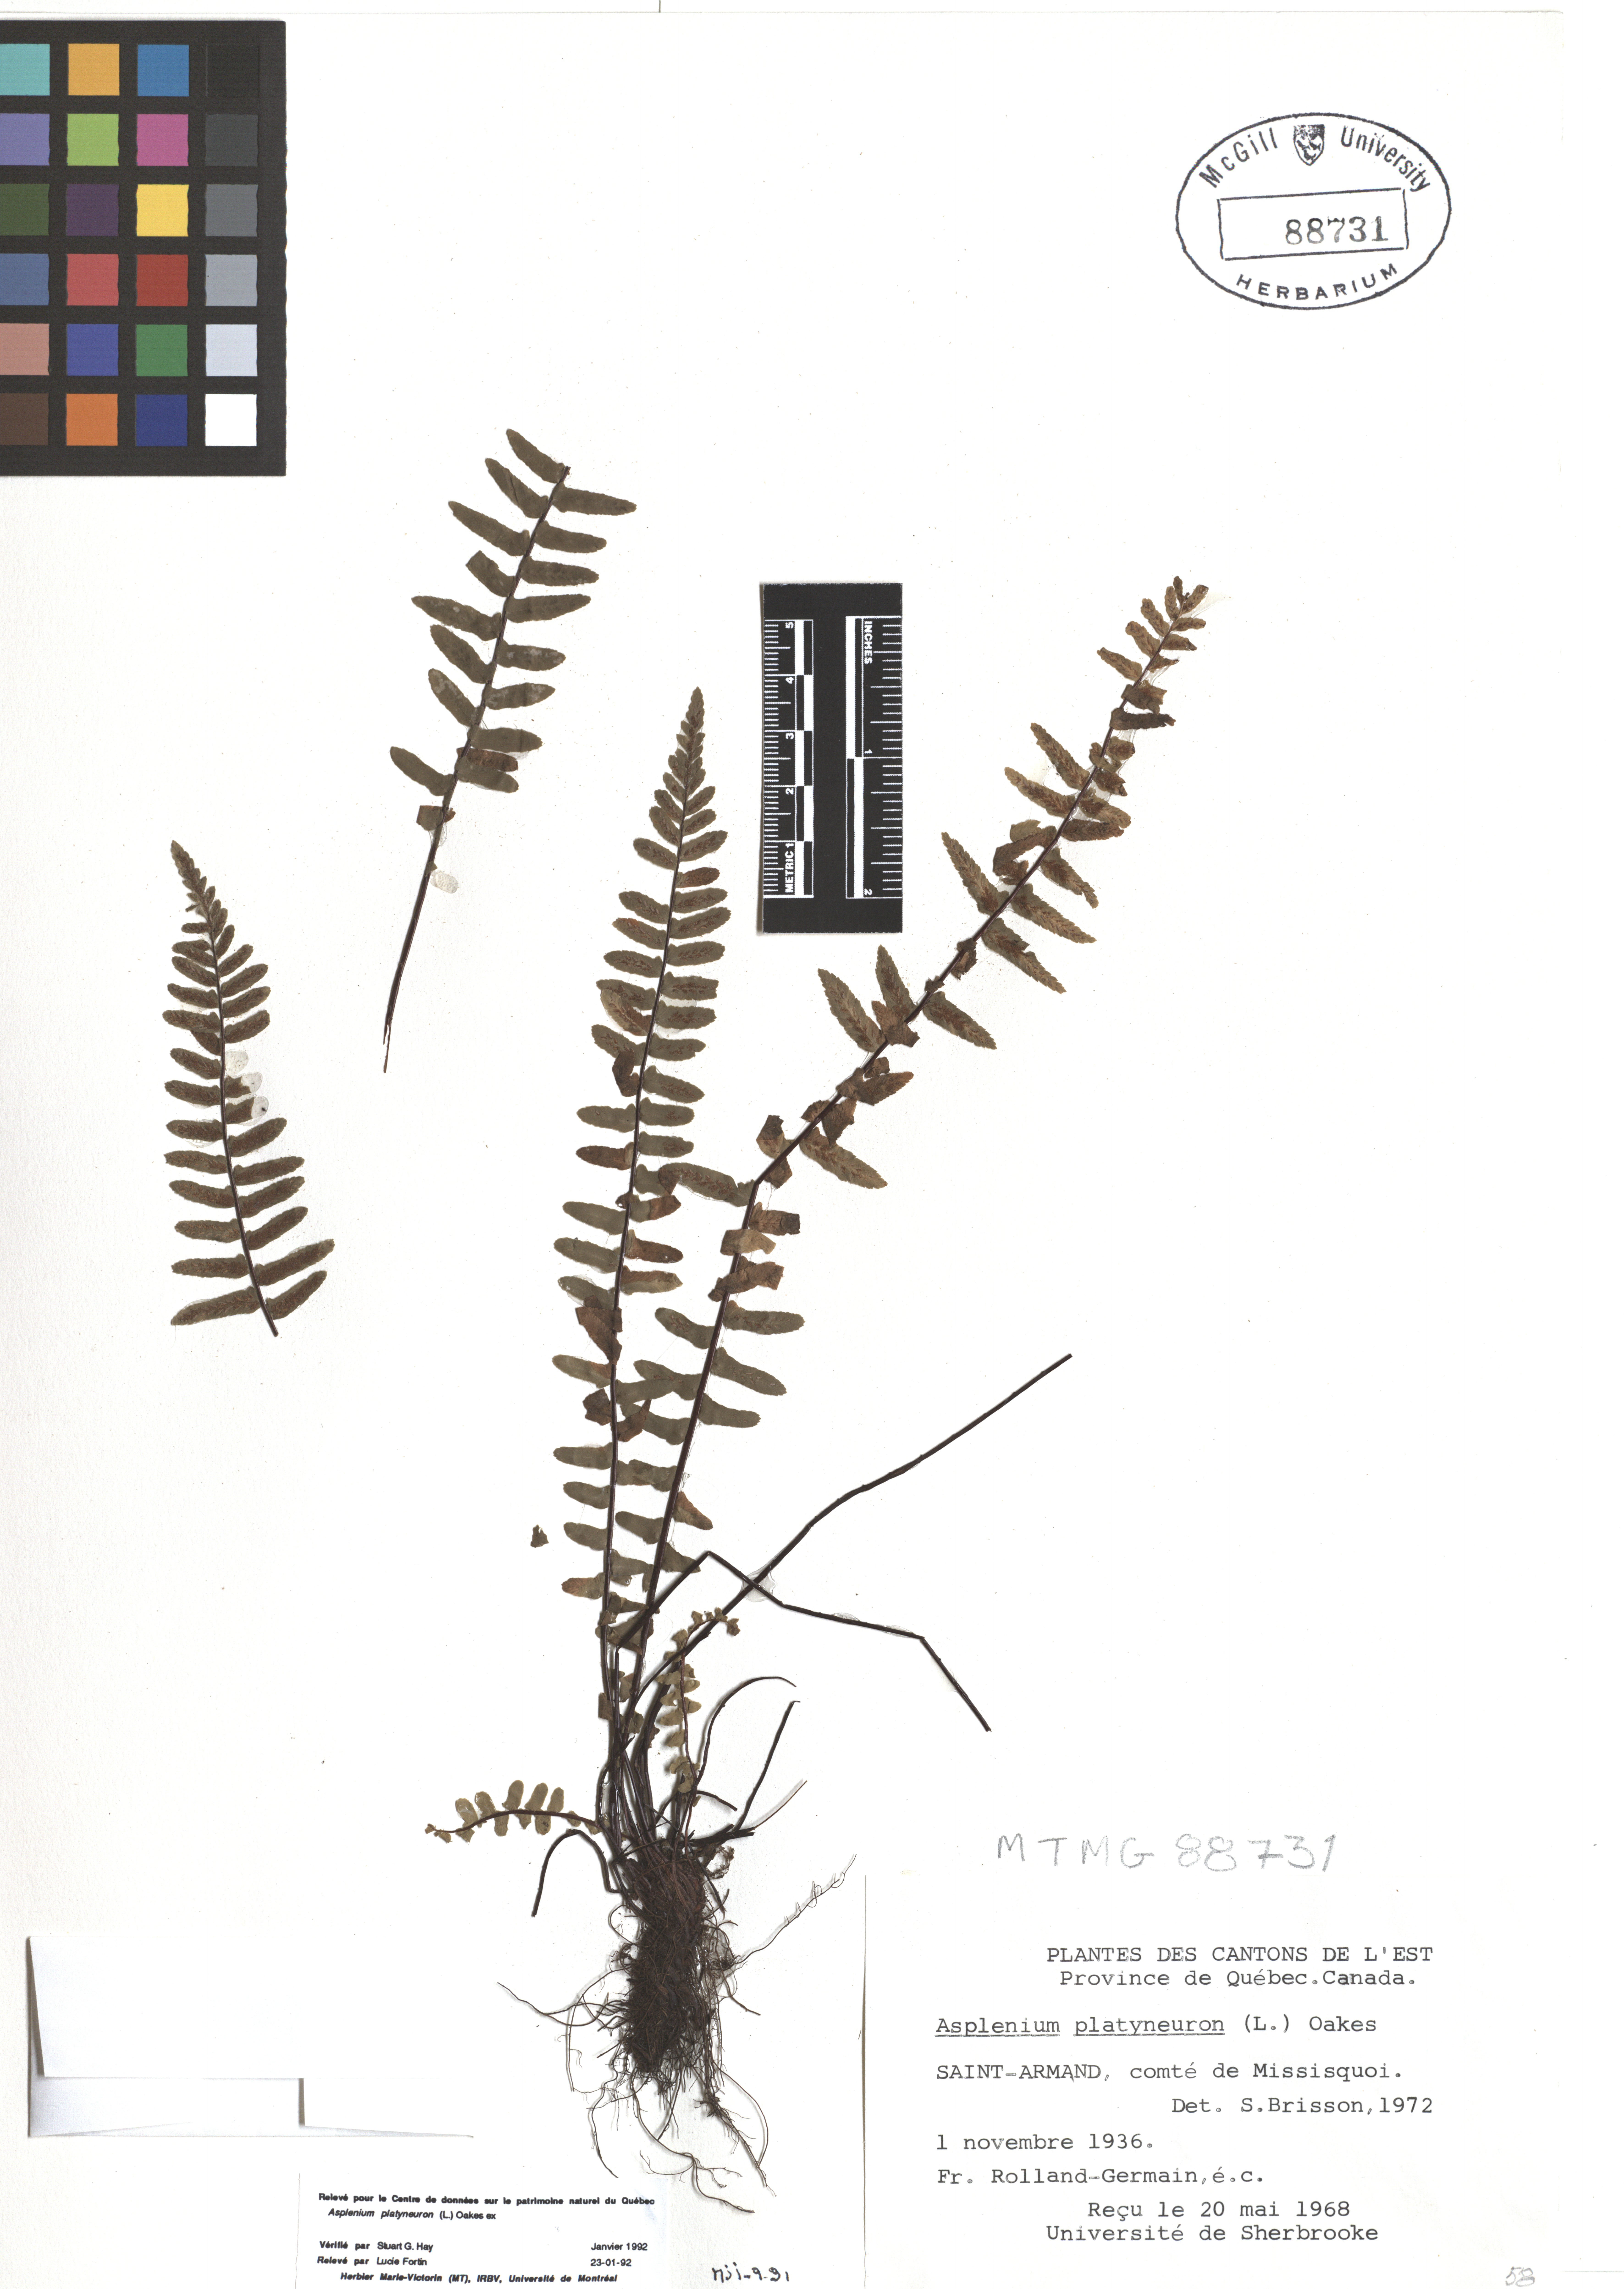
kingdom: Plantae
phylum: Tracheophyta
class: Polypodiopsida
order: Polypodiales
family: Aspleniaceae
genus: Asplenium
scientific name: Asplenium platyneuron
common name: Ebony spleenwort
